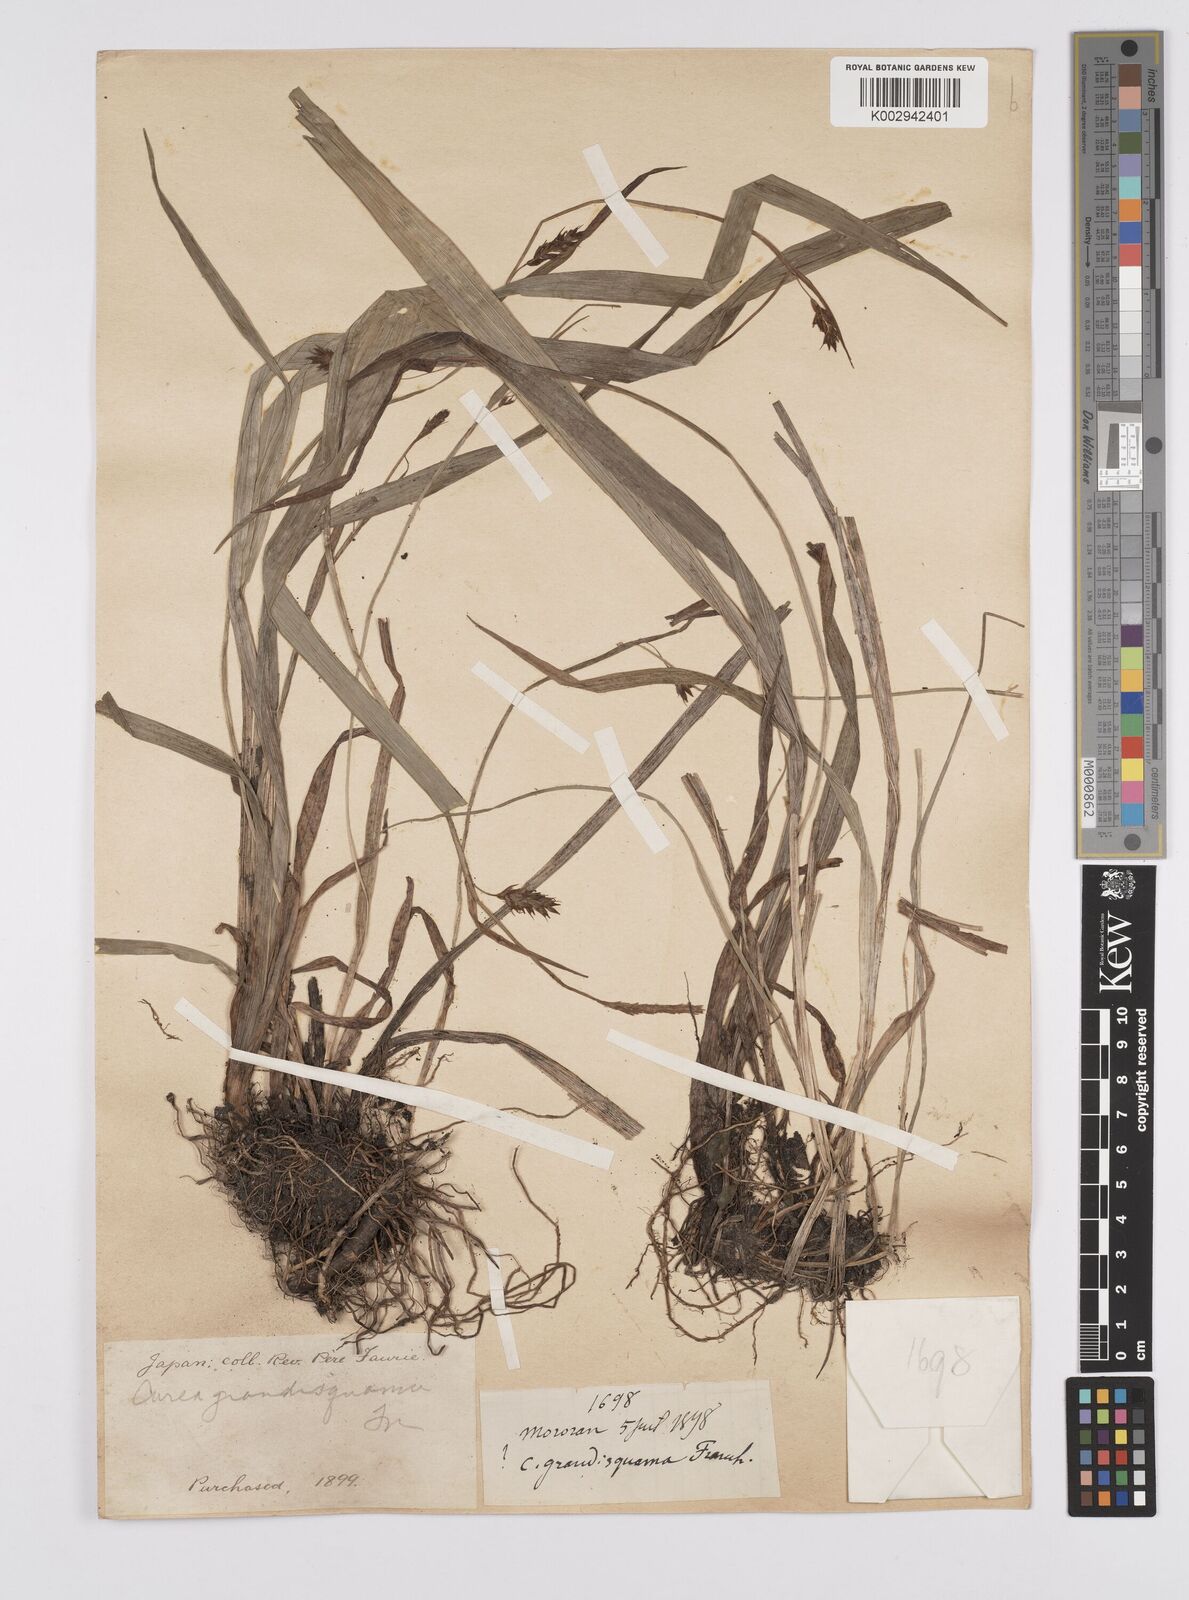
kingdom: Plantae
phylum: Tracheophyta
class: Liliopsida
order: Poales
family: Cyperaceae
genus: Carex
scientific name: Carex papulosa
